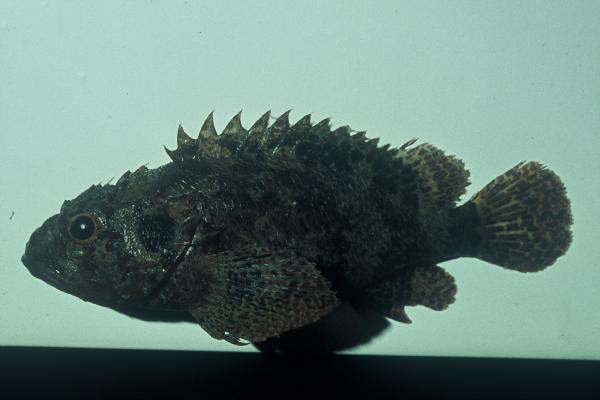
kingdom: Animalia
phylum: Chordata
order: Scorpaeniformes
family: Scorpaenidae
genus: Scorpaenodes
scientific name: Scorpaenodes guamensis
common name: Guam scorpionfish
